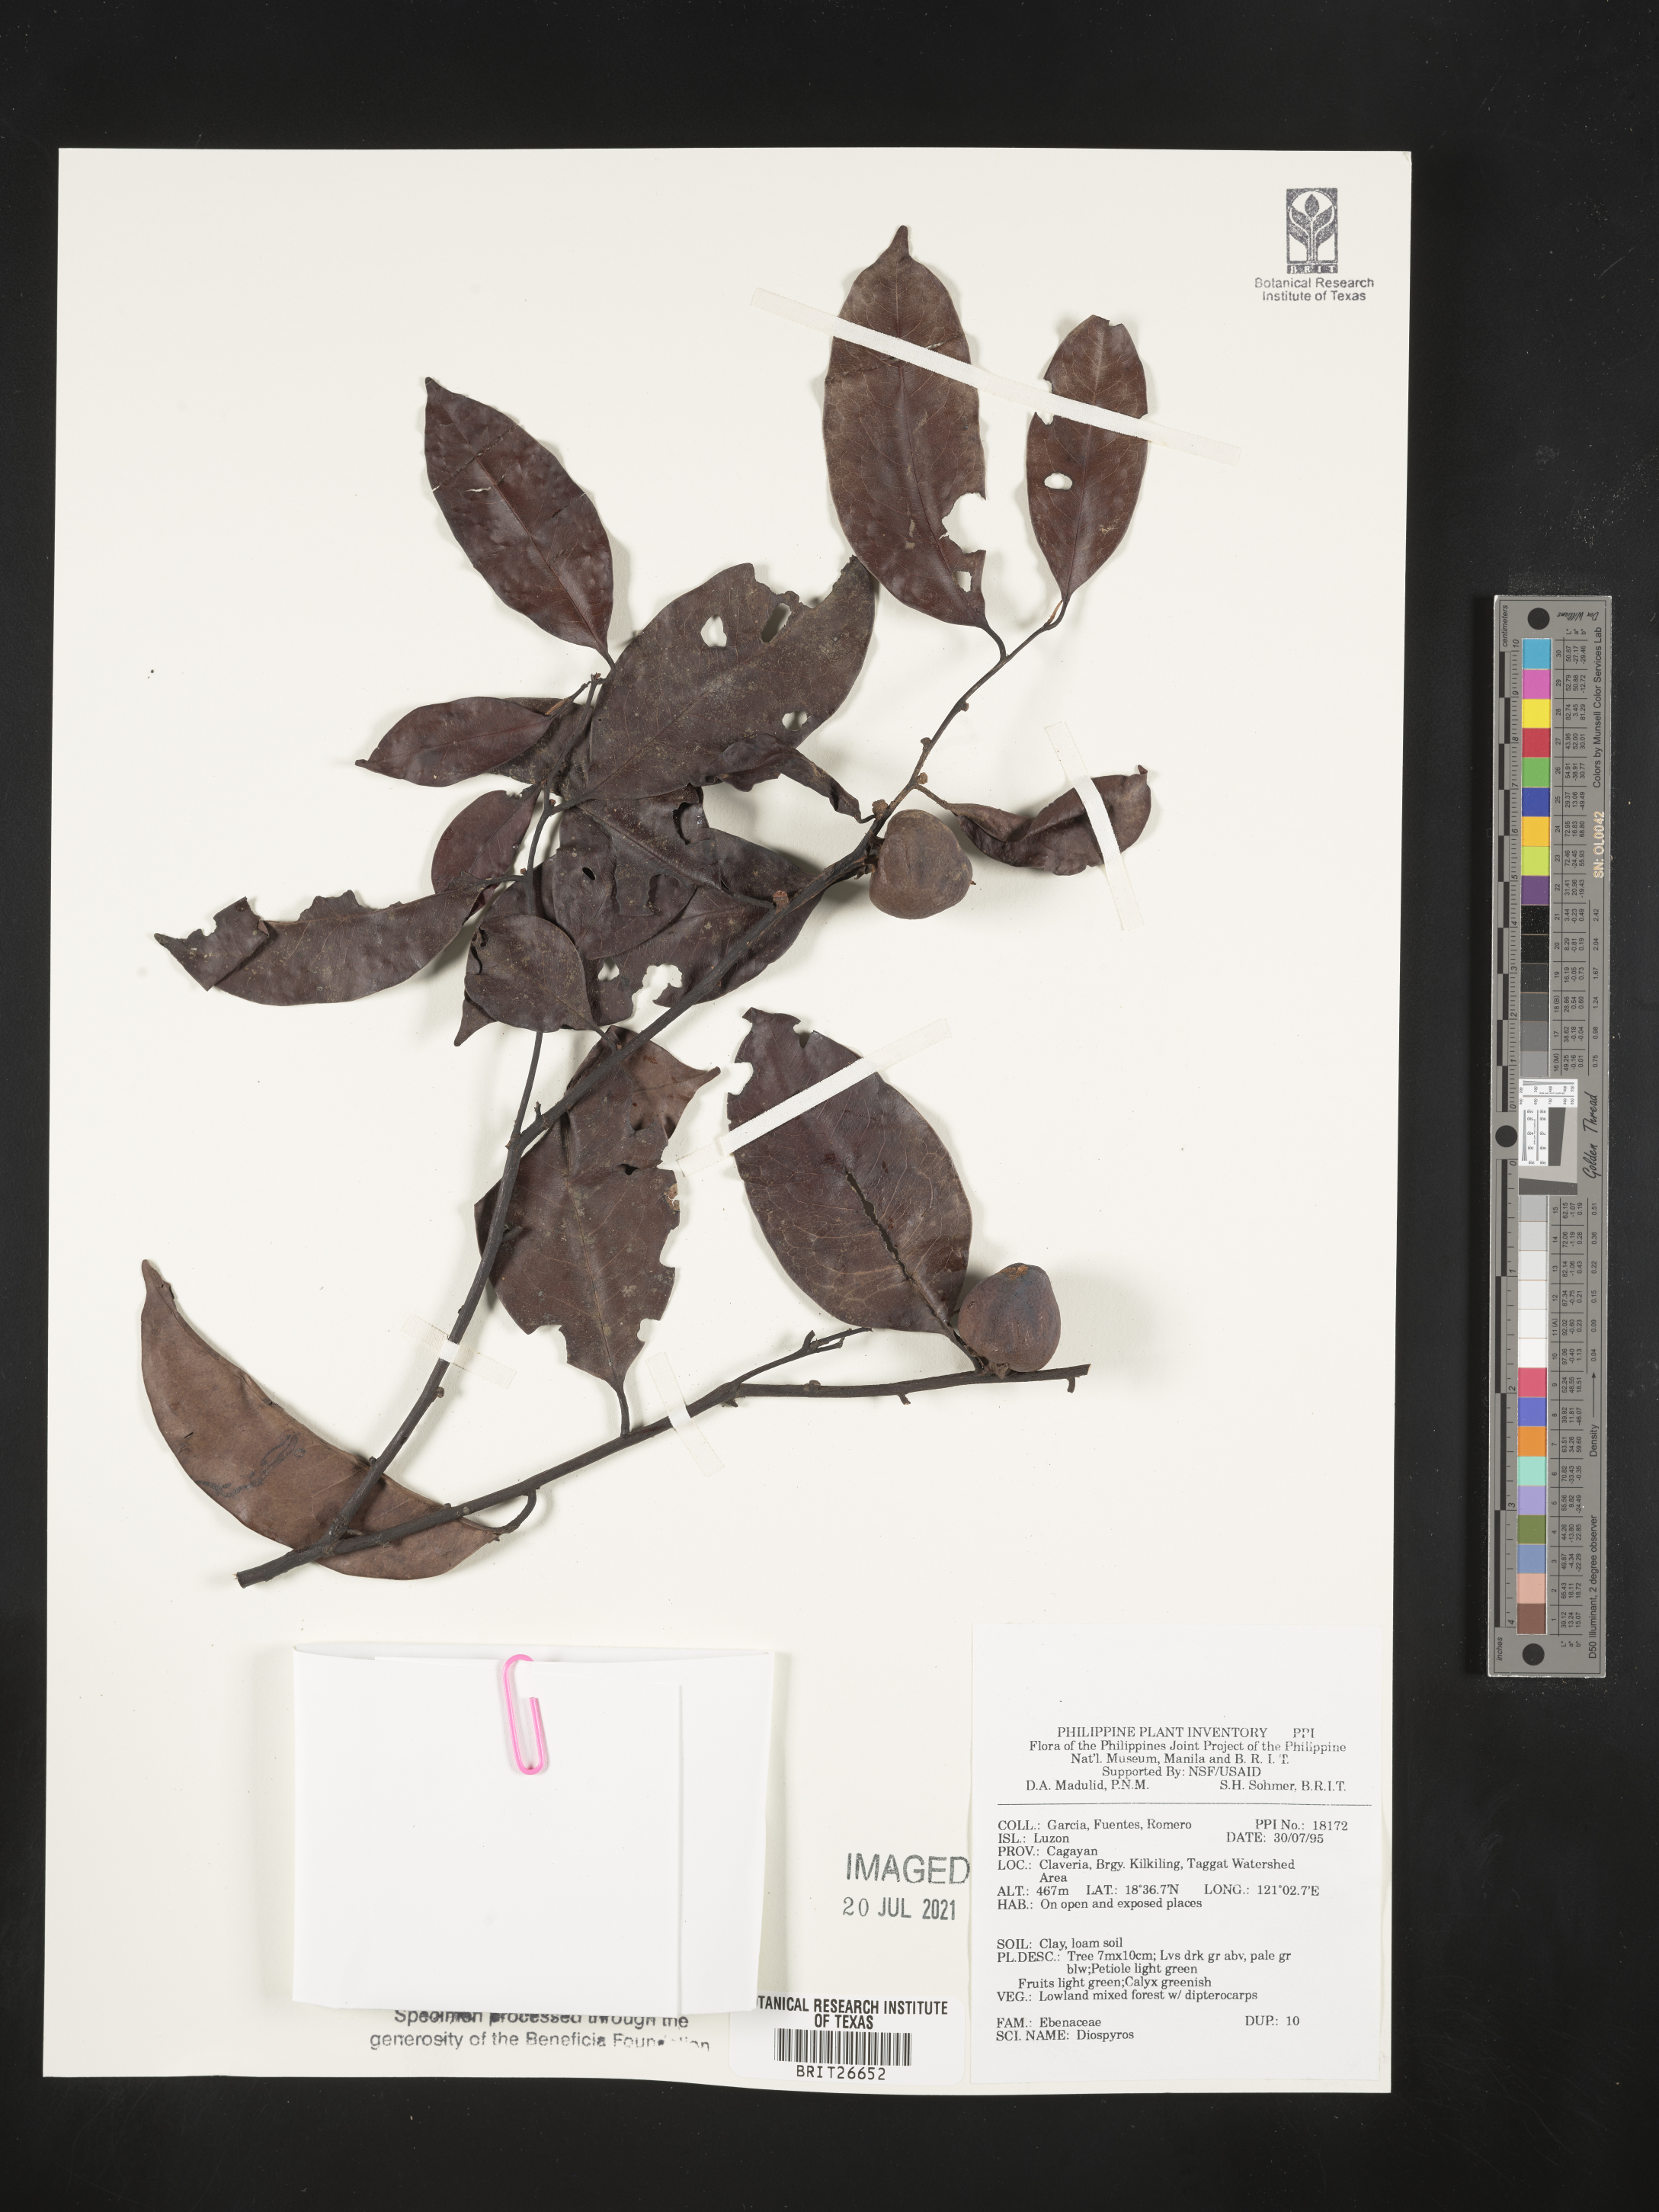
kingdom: Plantae
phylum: Tracheophyta
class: Magnoliopsida
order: Ericales
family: Ebenaceae
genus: Diospyros
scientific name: Diospyros
